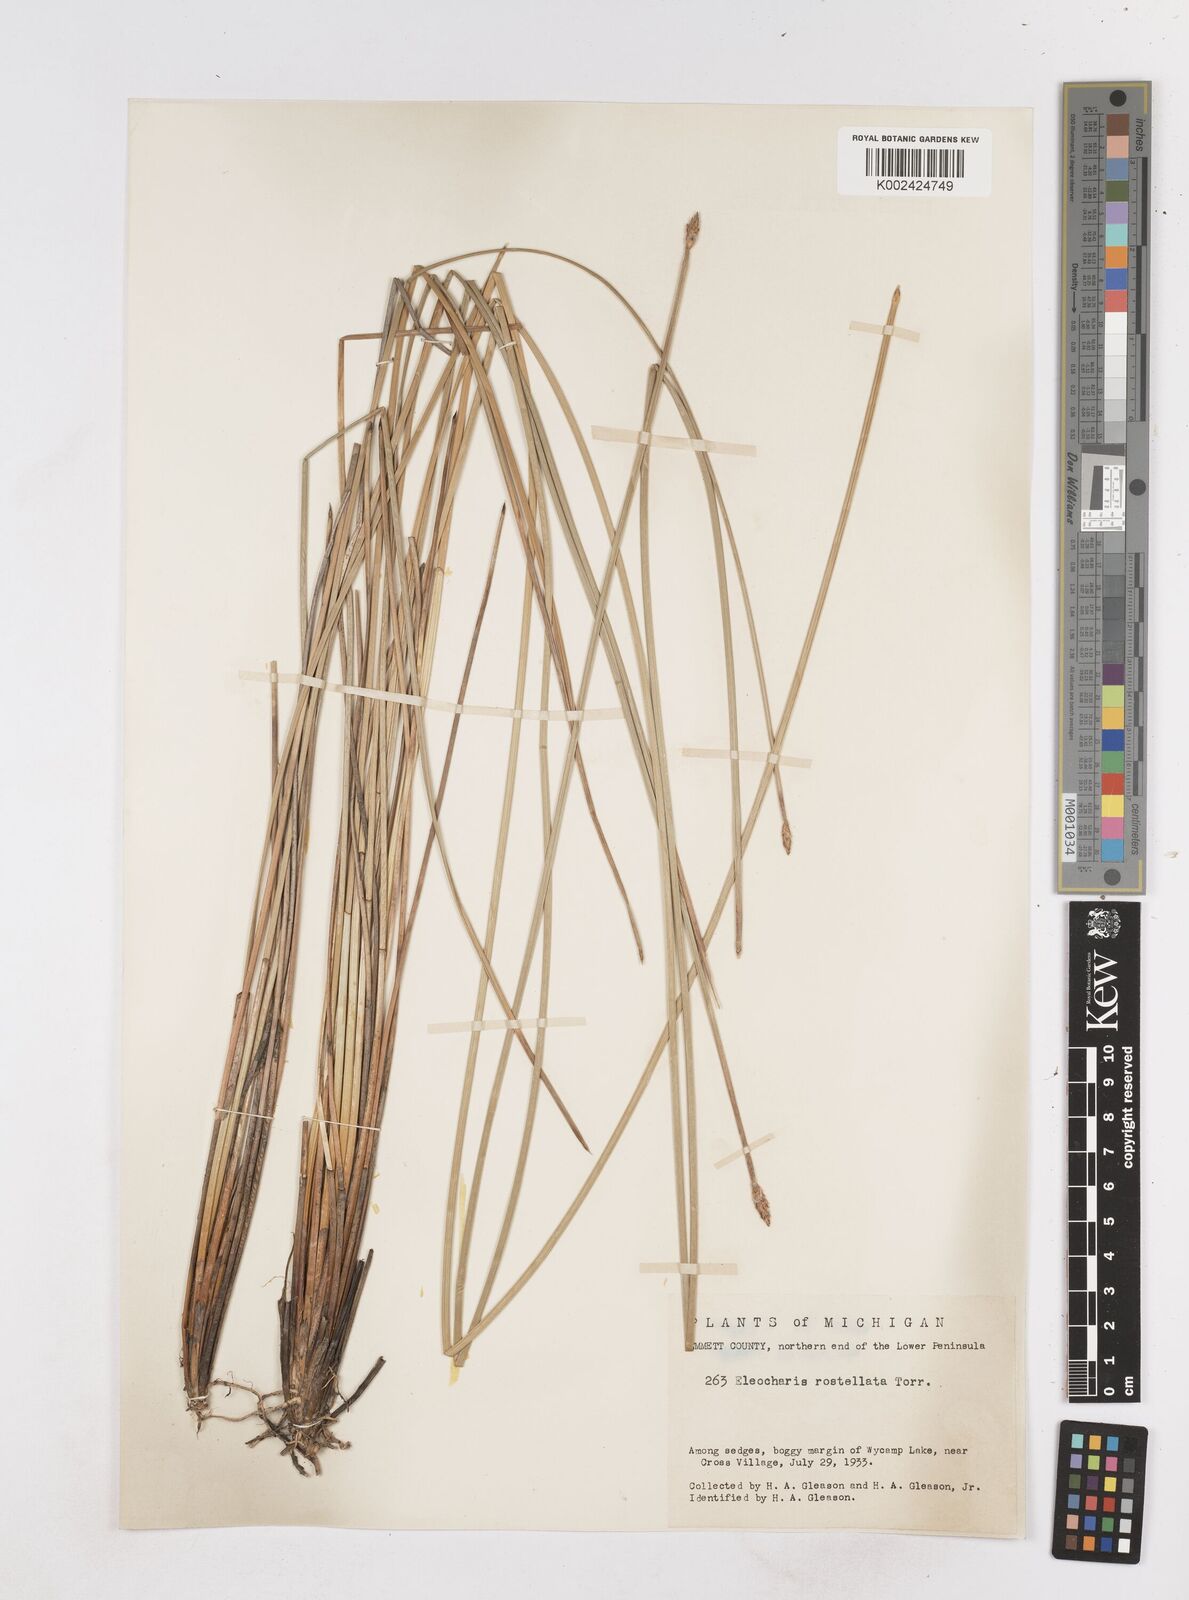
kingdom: Plantae
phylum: Tracheophyta
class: Liliopsida
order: Poales
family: Cyperaceae
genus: Eleocharis
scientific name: Eleocharis rostellata
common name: Walking sedge
